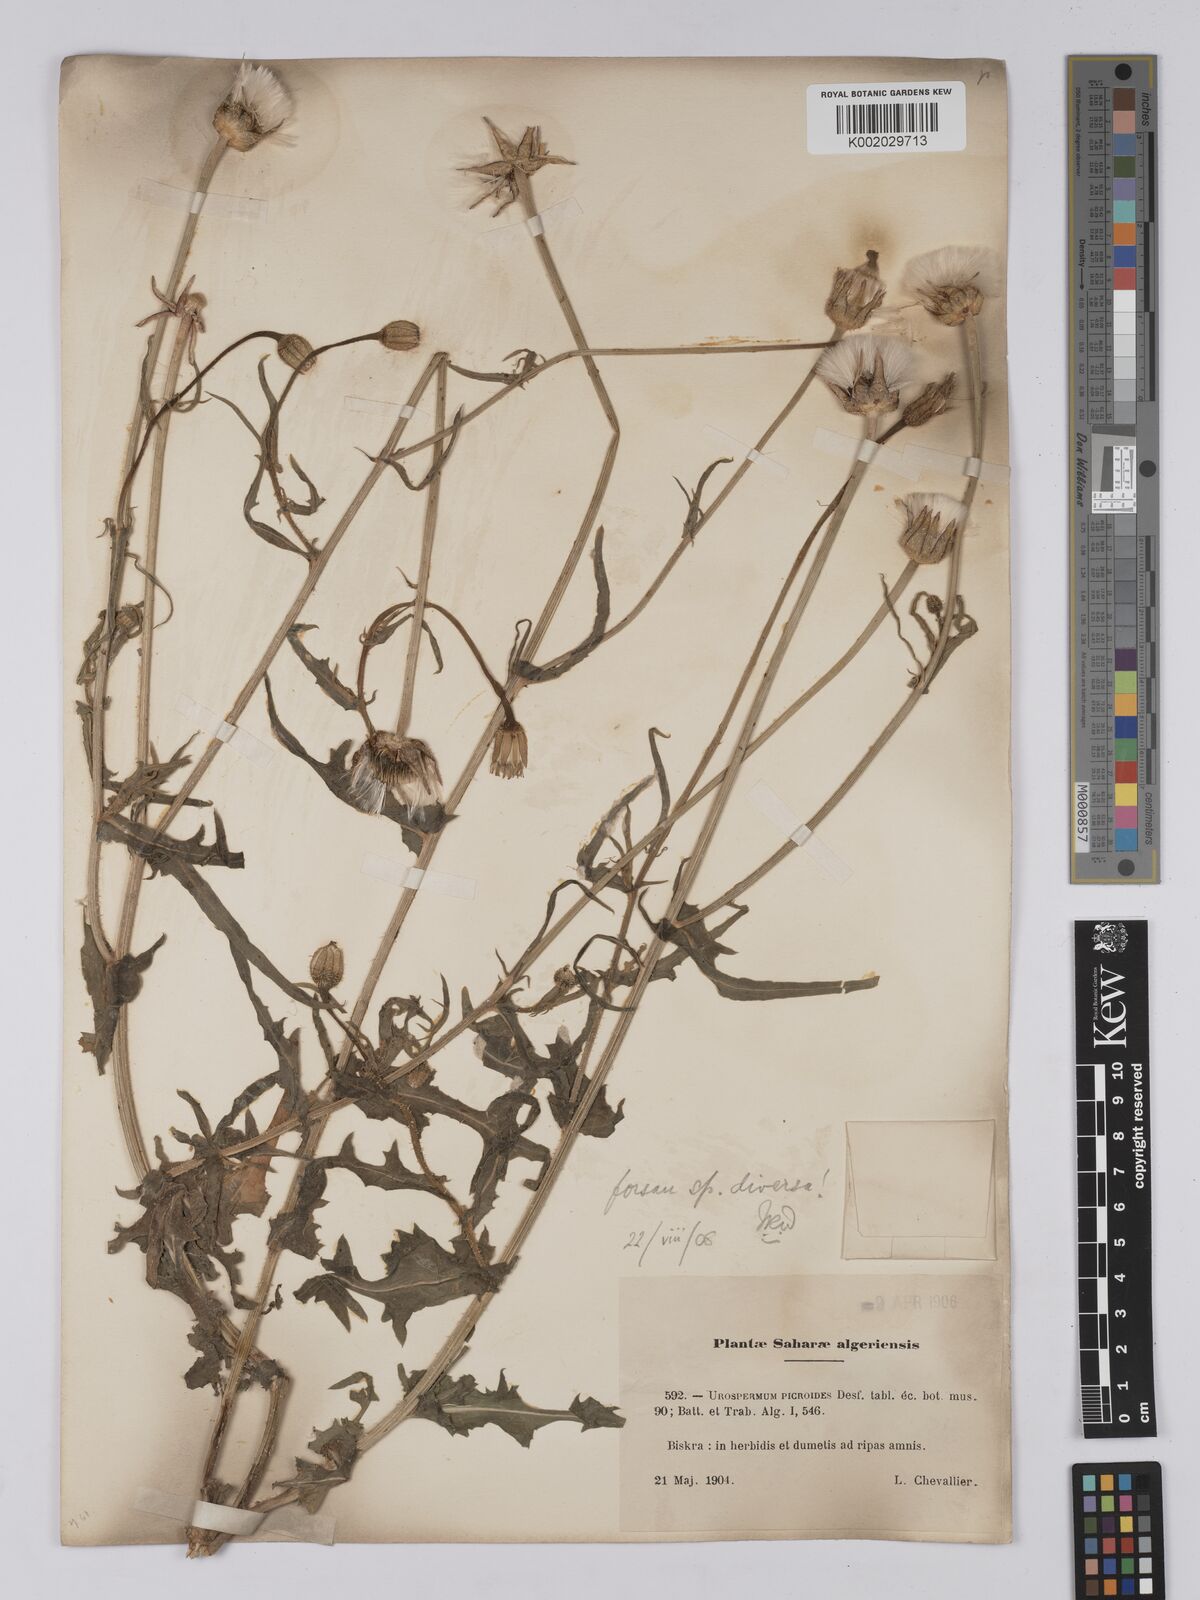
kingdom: Plantae
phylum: Tracheophyta
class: Magnoliopsida
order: Asterales
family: Asteraceae
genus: Urospermum
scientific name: Urospermum picroides
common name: False hawkbit
